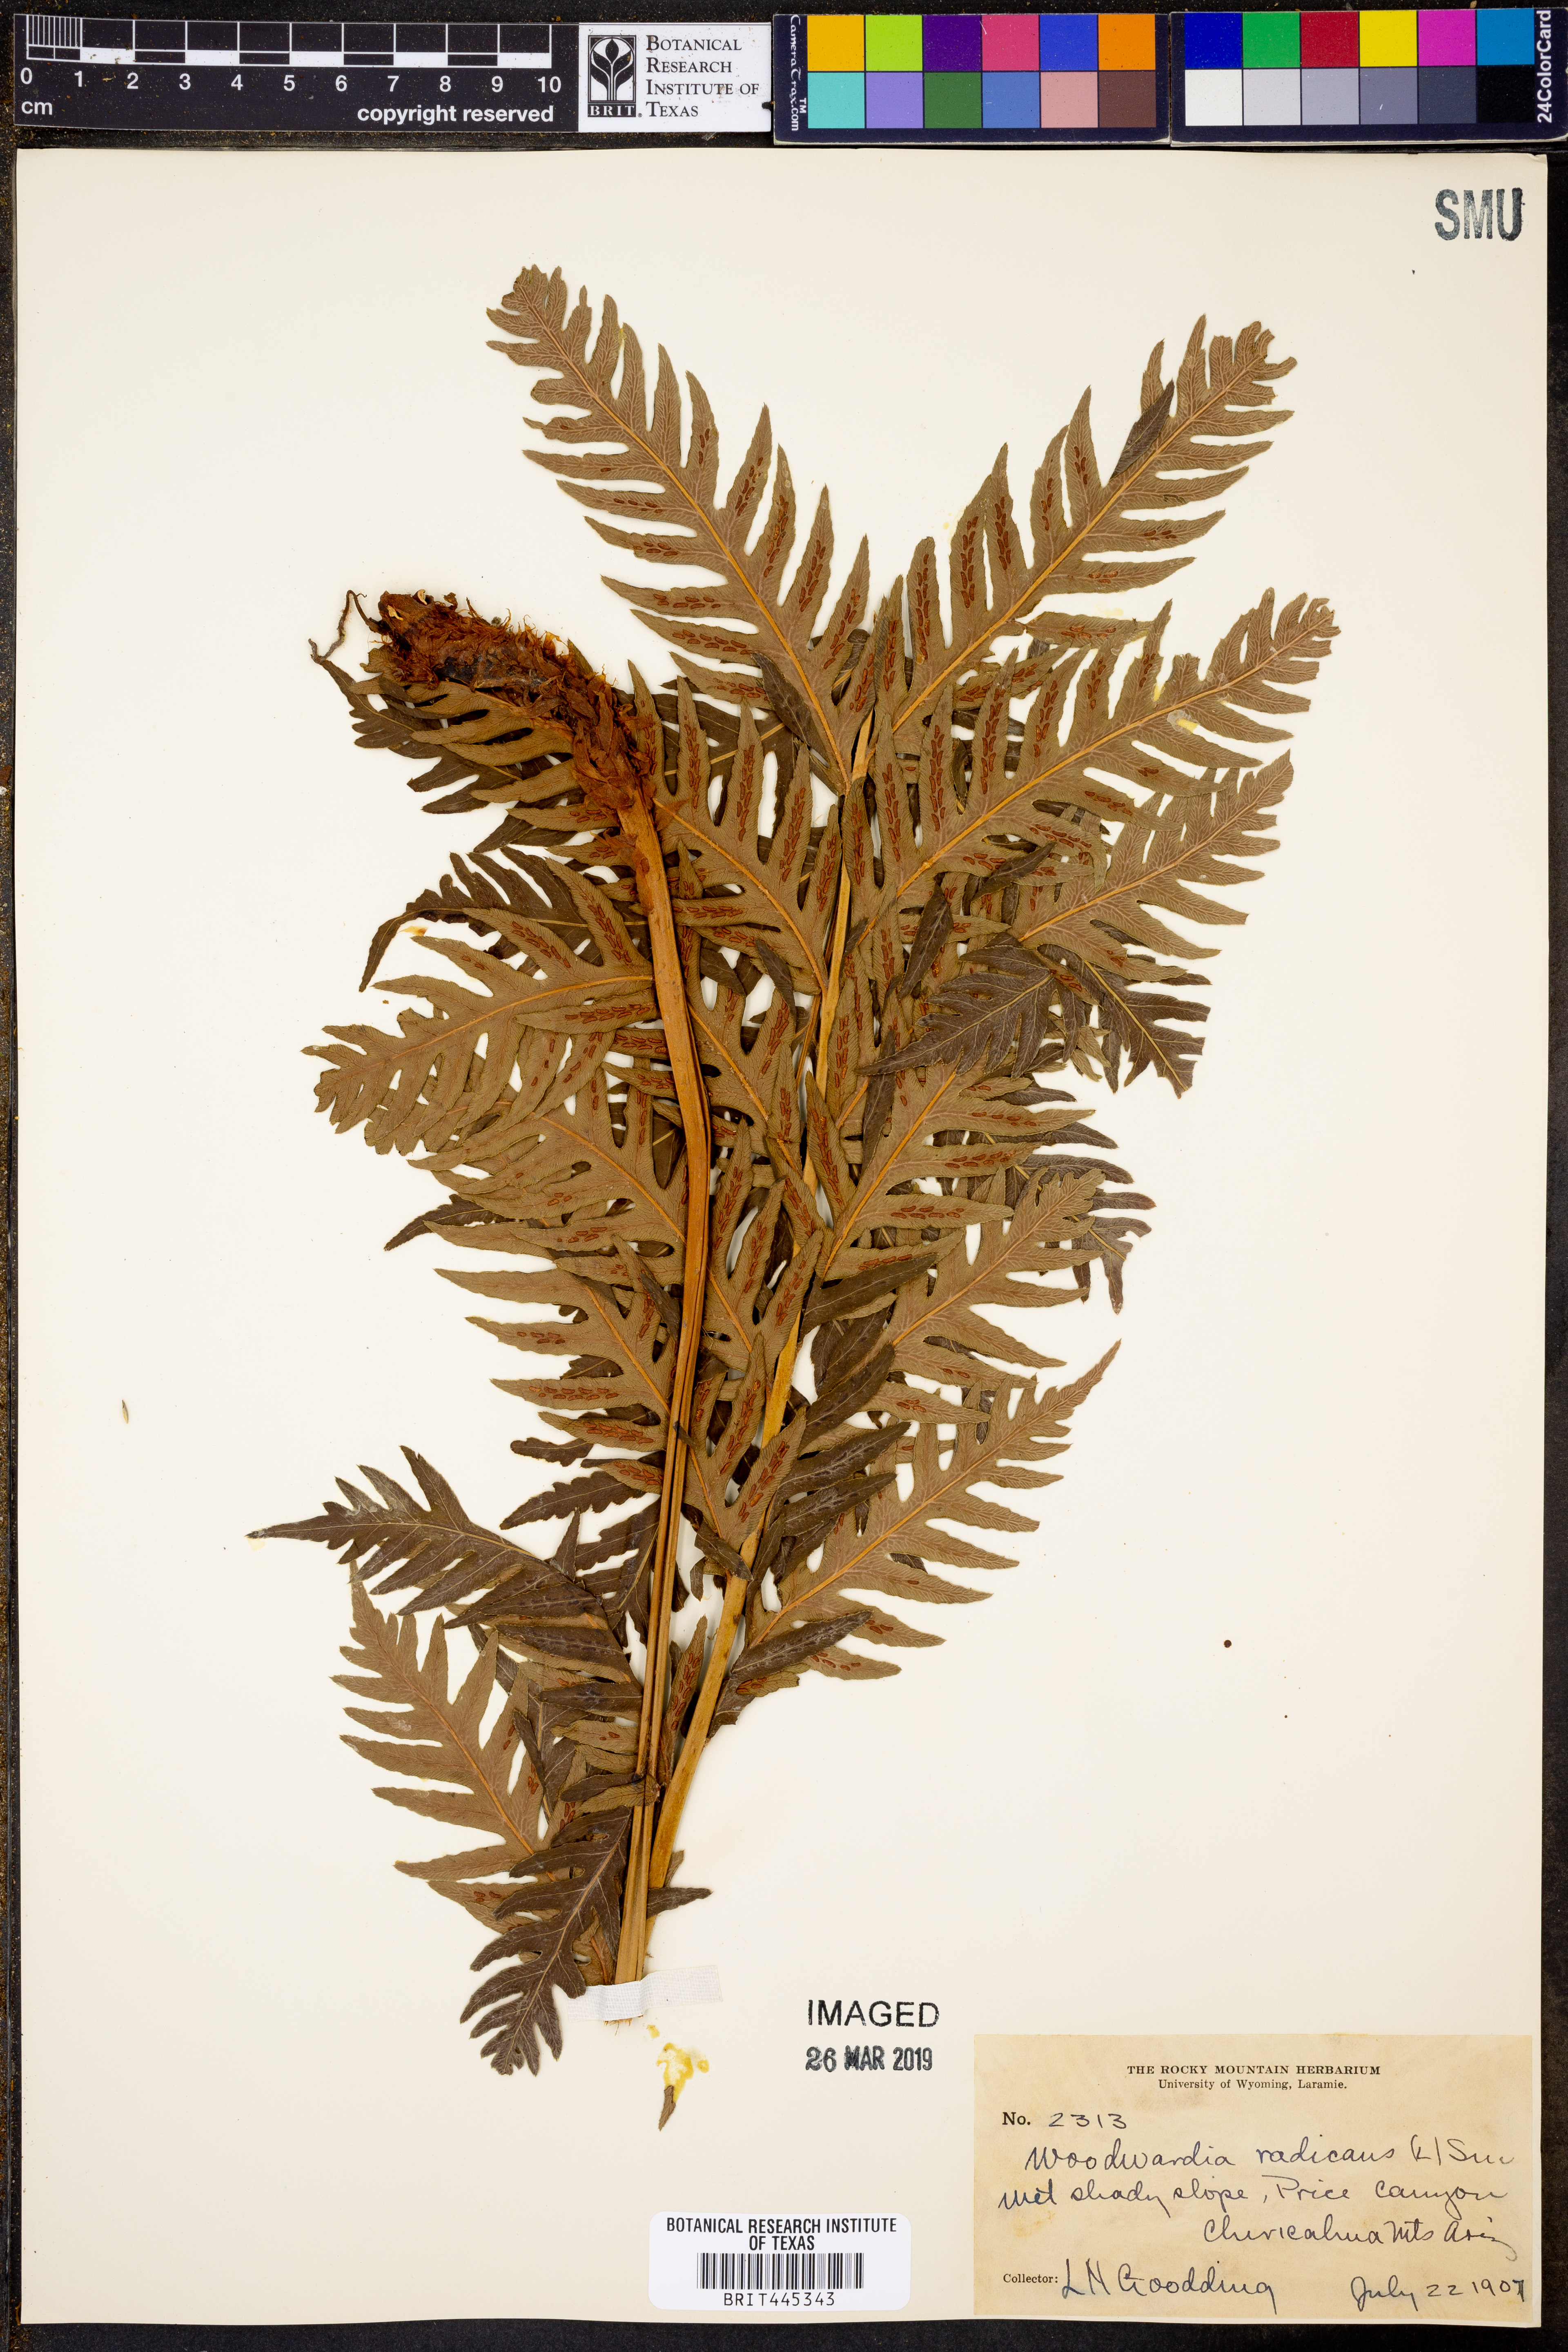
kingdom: Plantae
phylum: Tracheophyta
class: Polypodiopsida
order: Polypodiales
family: Blechnaceae
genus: Woodwardia
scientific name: Woodwardia radicans
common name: Rooting chainfern
